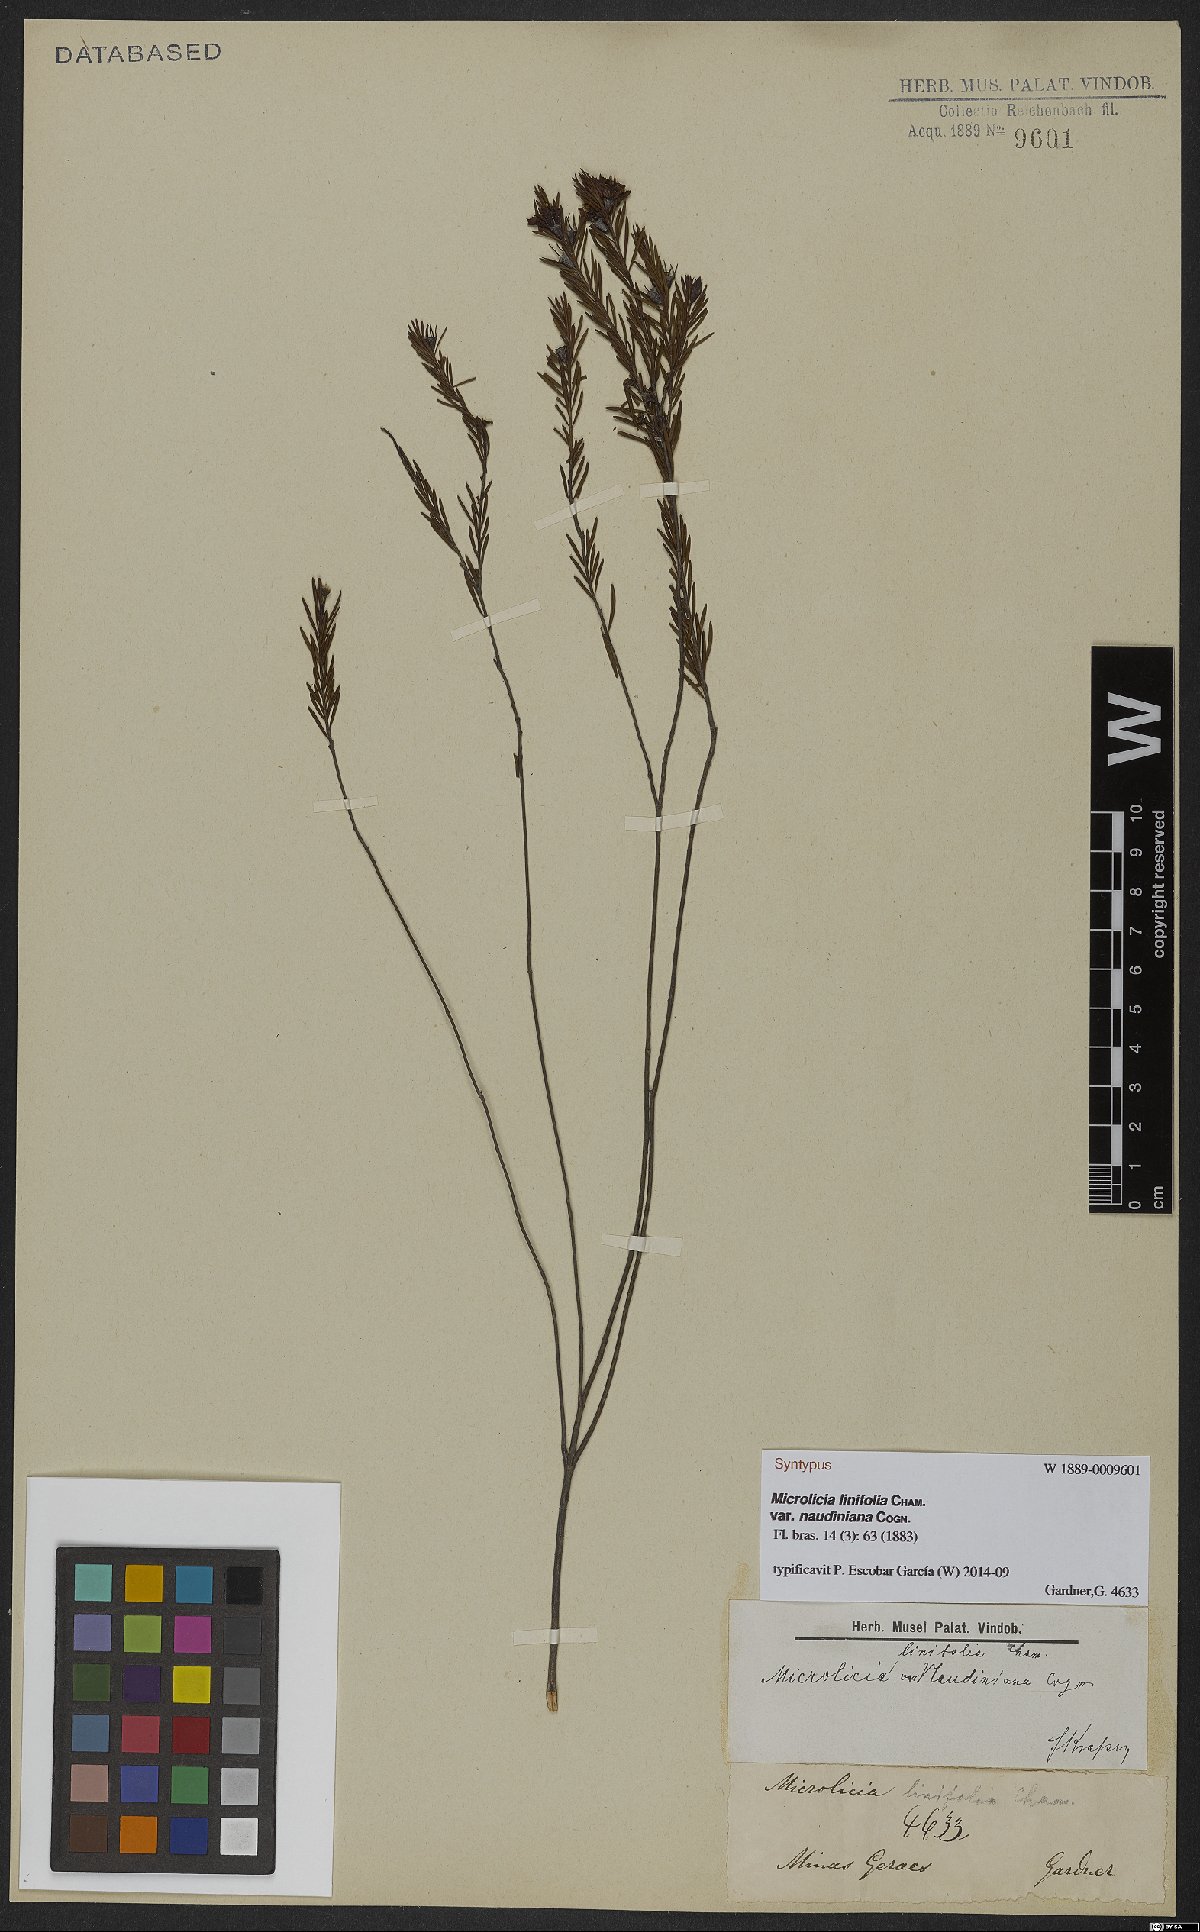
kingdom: Plantae
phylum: Tracheophyta
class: Magnoliopsida
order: Myrtales
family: Melastomataceae
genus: Microlicia
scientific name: Microlicia acerosa
